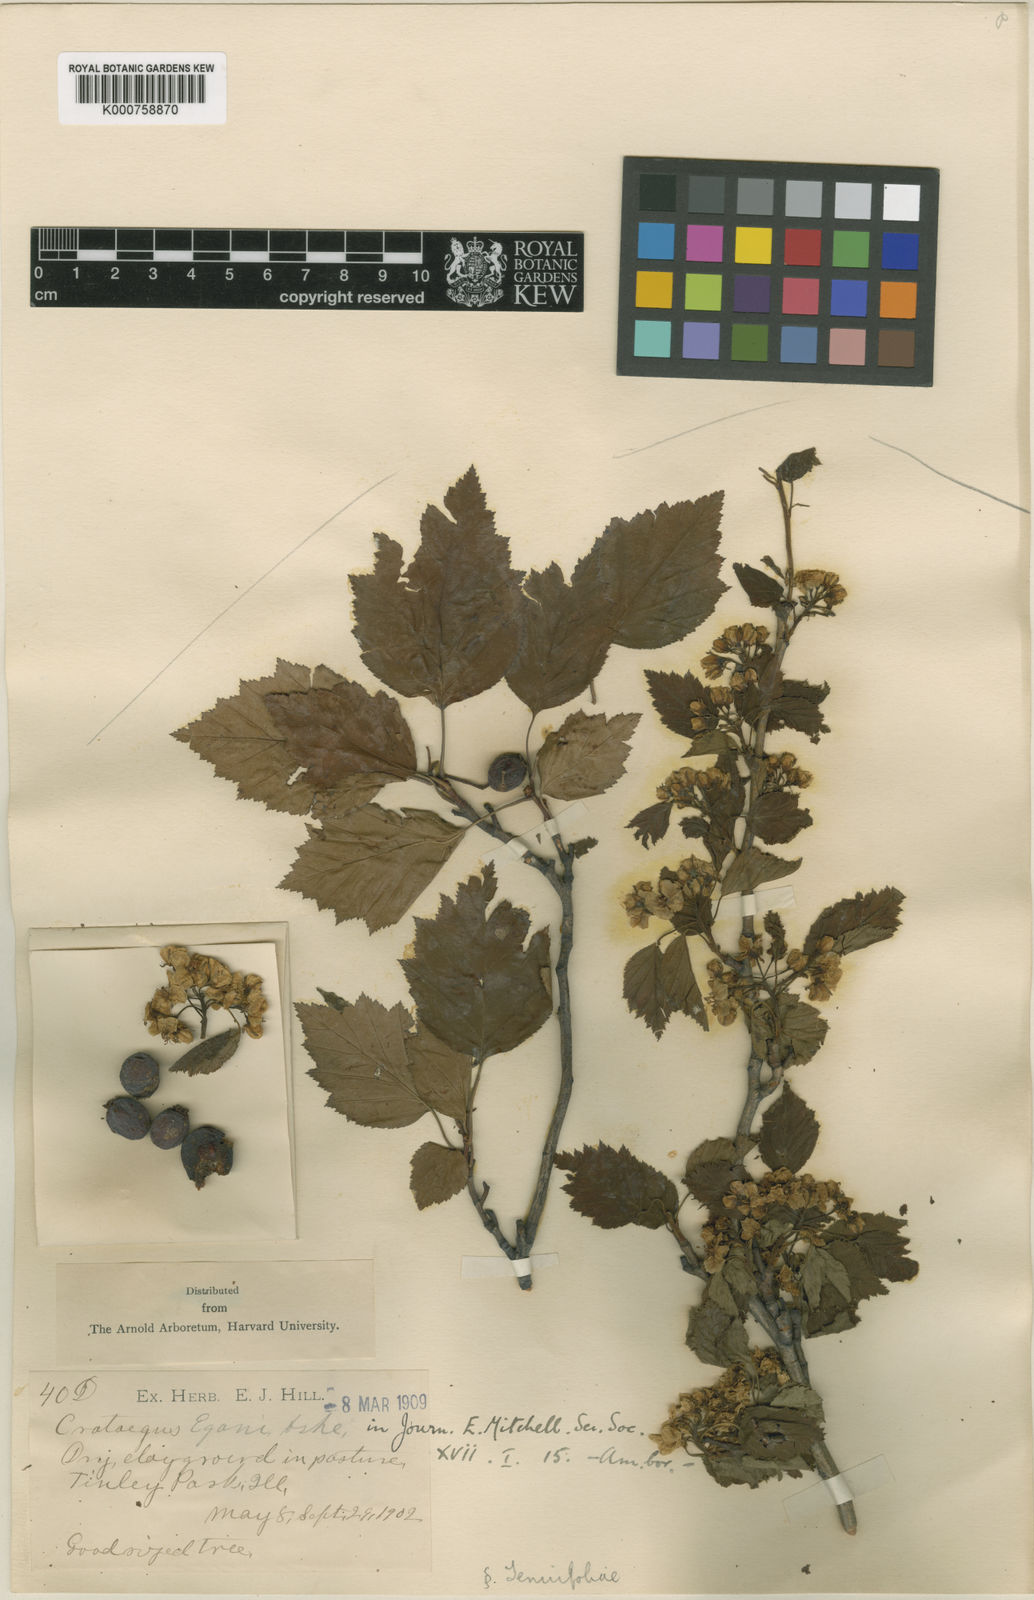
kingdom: Plantae
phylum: Tracheophyta
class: Magnoliopsida
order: Rosales
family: Rosaceae
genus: Crataegus
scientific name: Crataegus macrosperma
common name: Variable hawthorn
